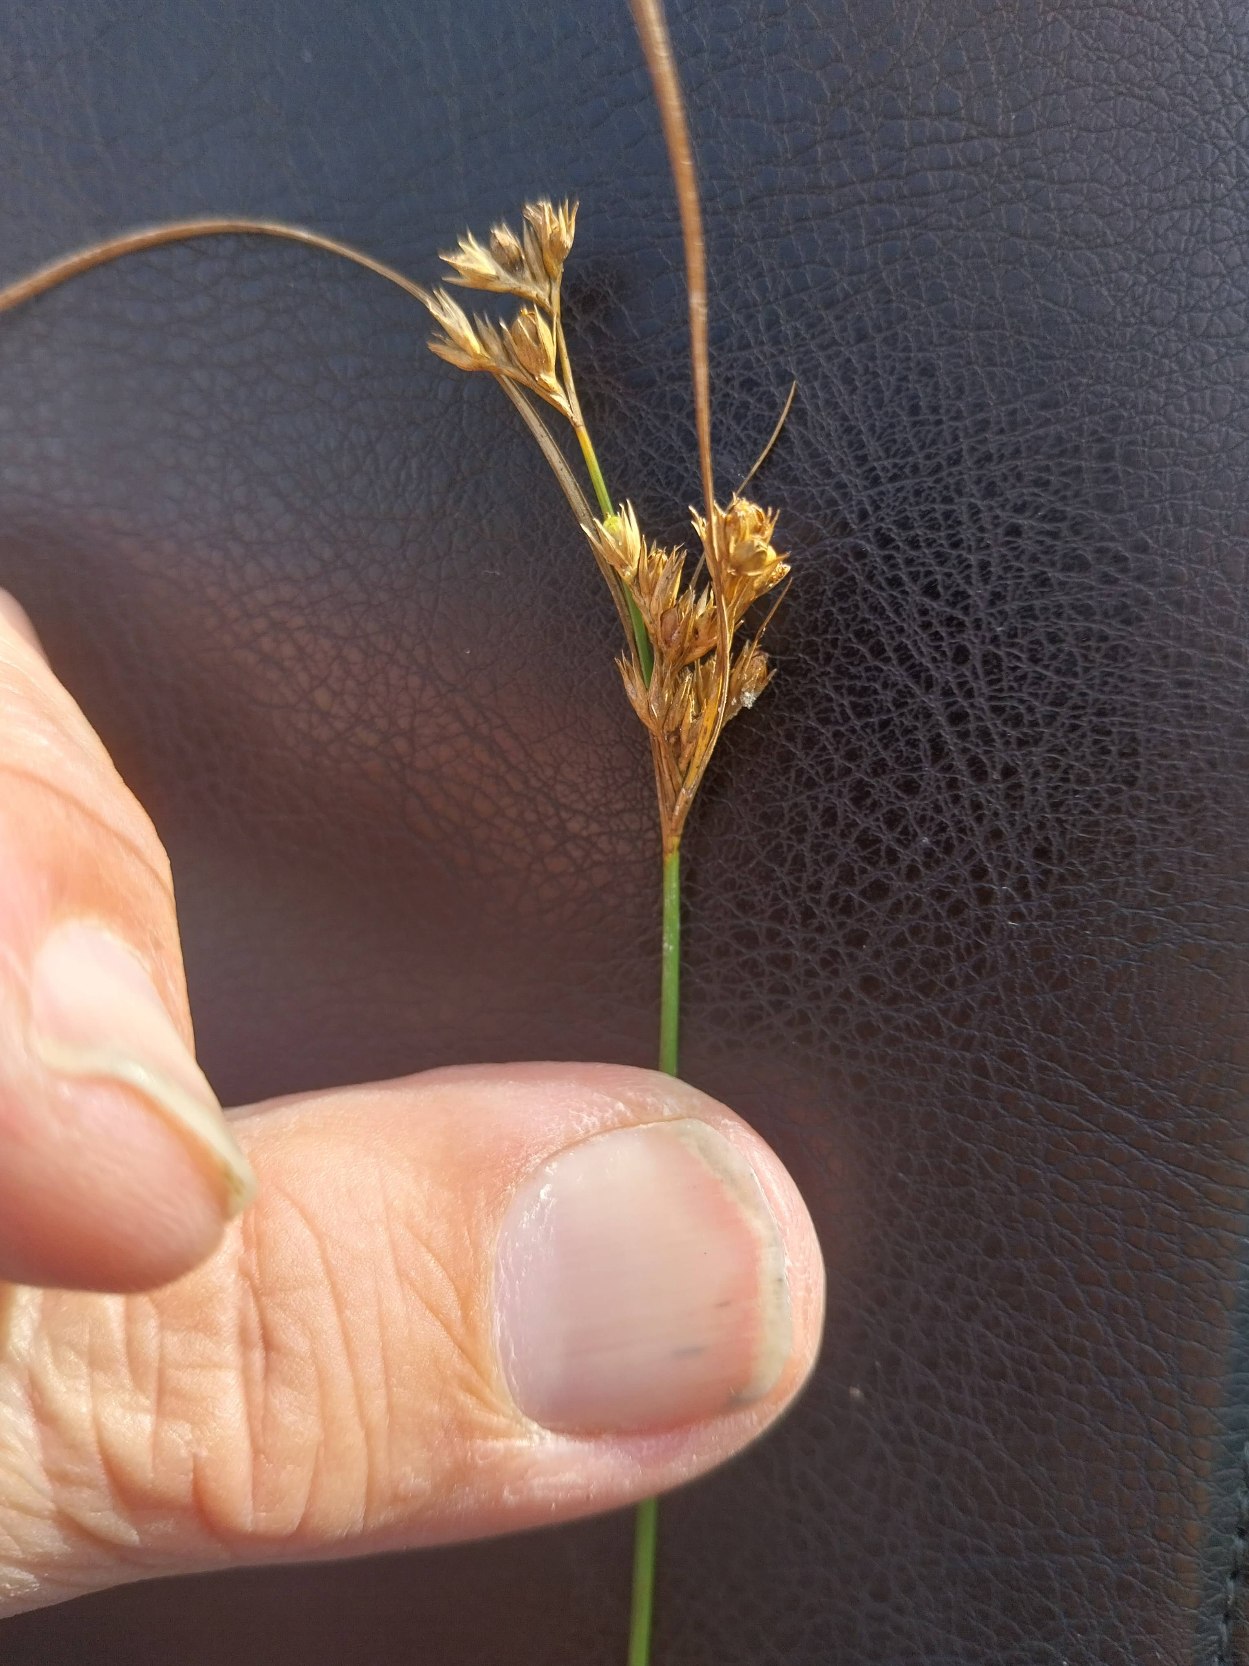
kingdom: Plantae
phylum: Tracheophyta
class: Liliopsida
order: Poales
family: Juncaceae
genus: Juncus
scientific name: Juncus tenuis
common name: Tue-siv
